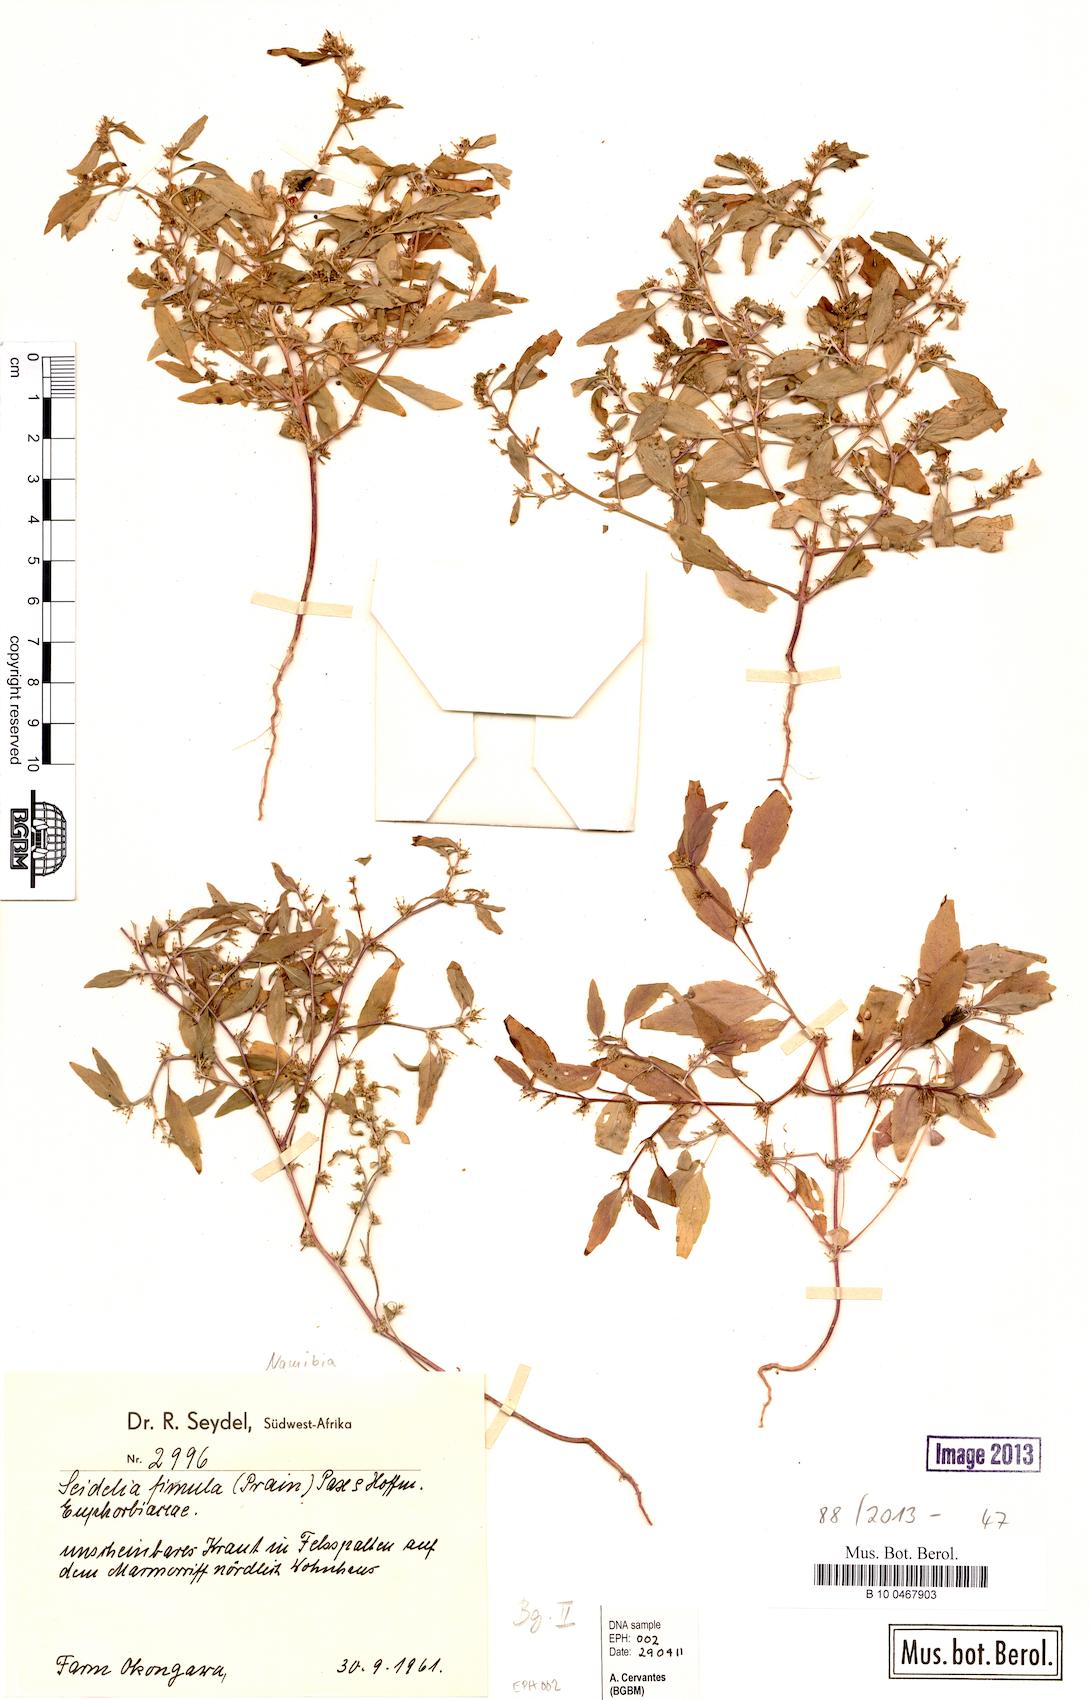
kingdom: Plantae
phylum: Tracheophyta
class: Magnoliopsida
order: Malpighiales
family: Euphorbiaceae
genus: Seidelia
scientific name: Seidelia firmula
